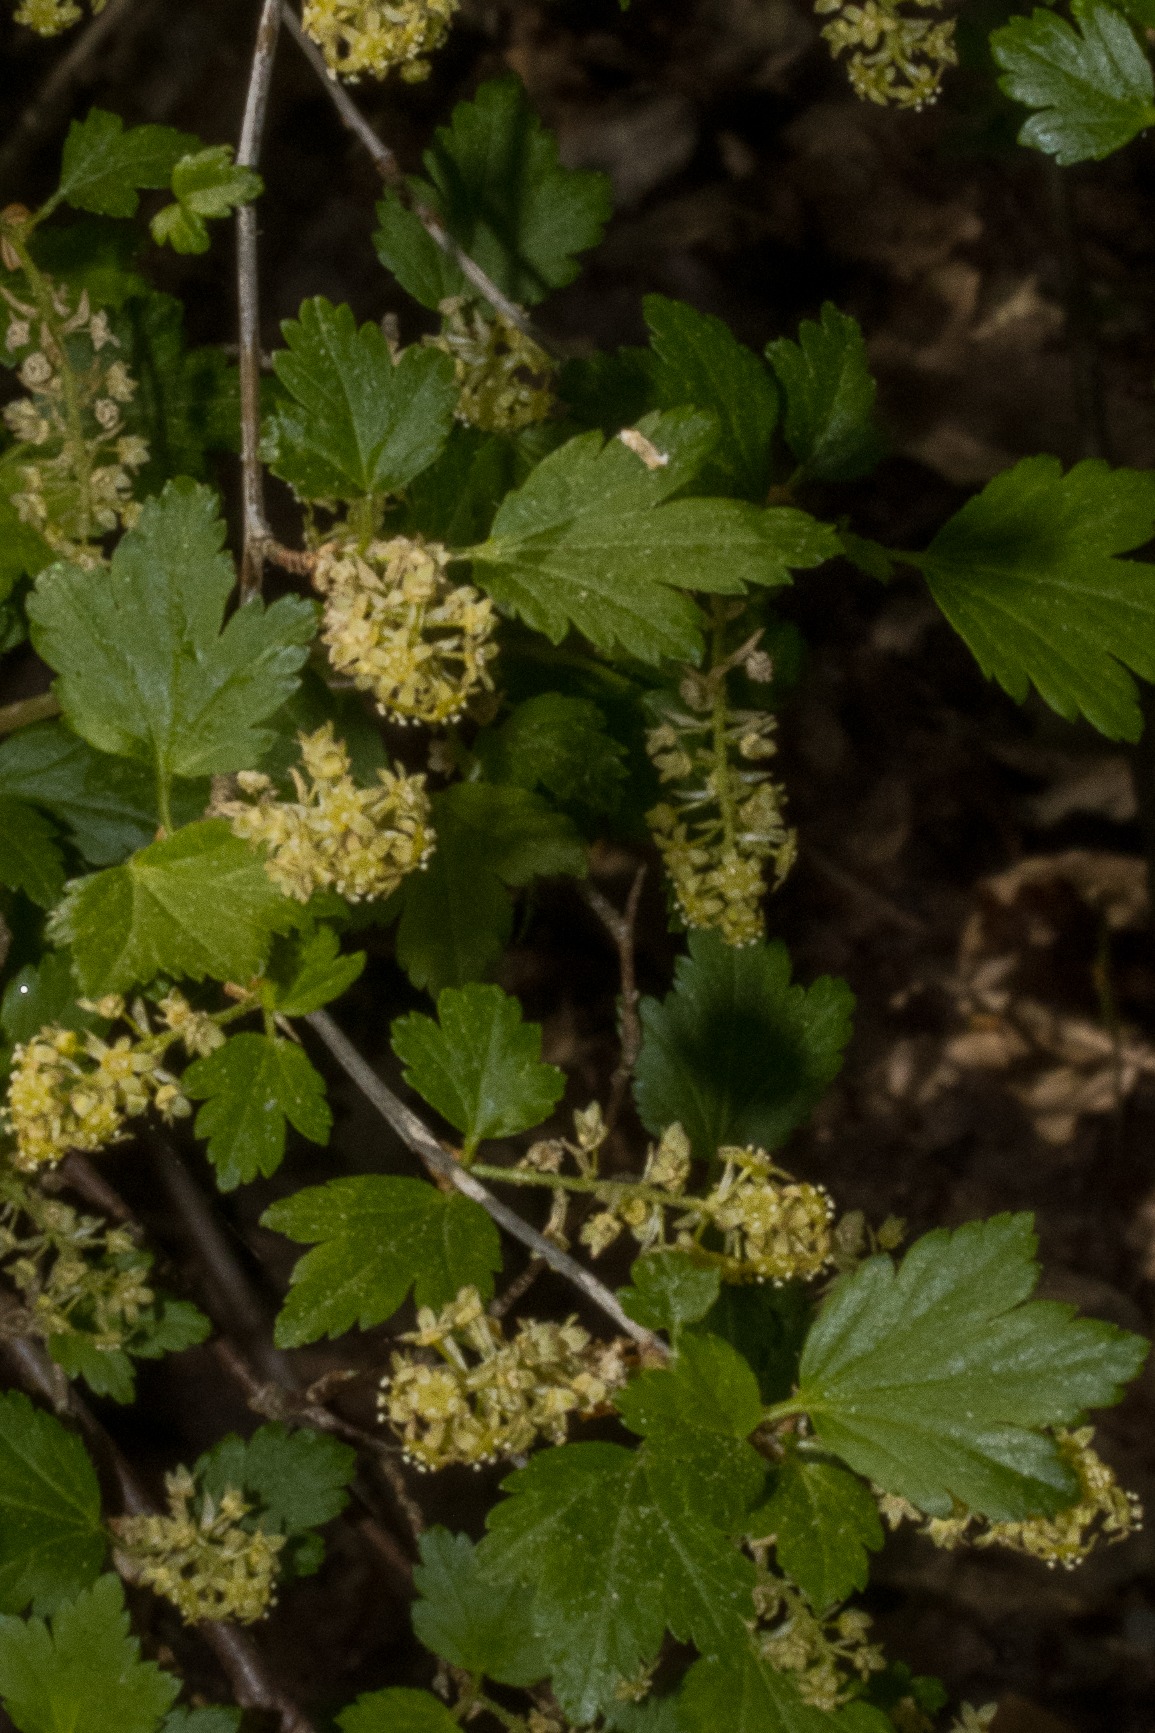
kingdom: Plantae
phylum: Tracheophyta
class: Magnoliopsida
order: Saxifragales
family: Grossulariaceae
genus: Ribes
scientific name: Ribes alpinum
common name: Fjeld-ribs
